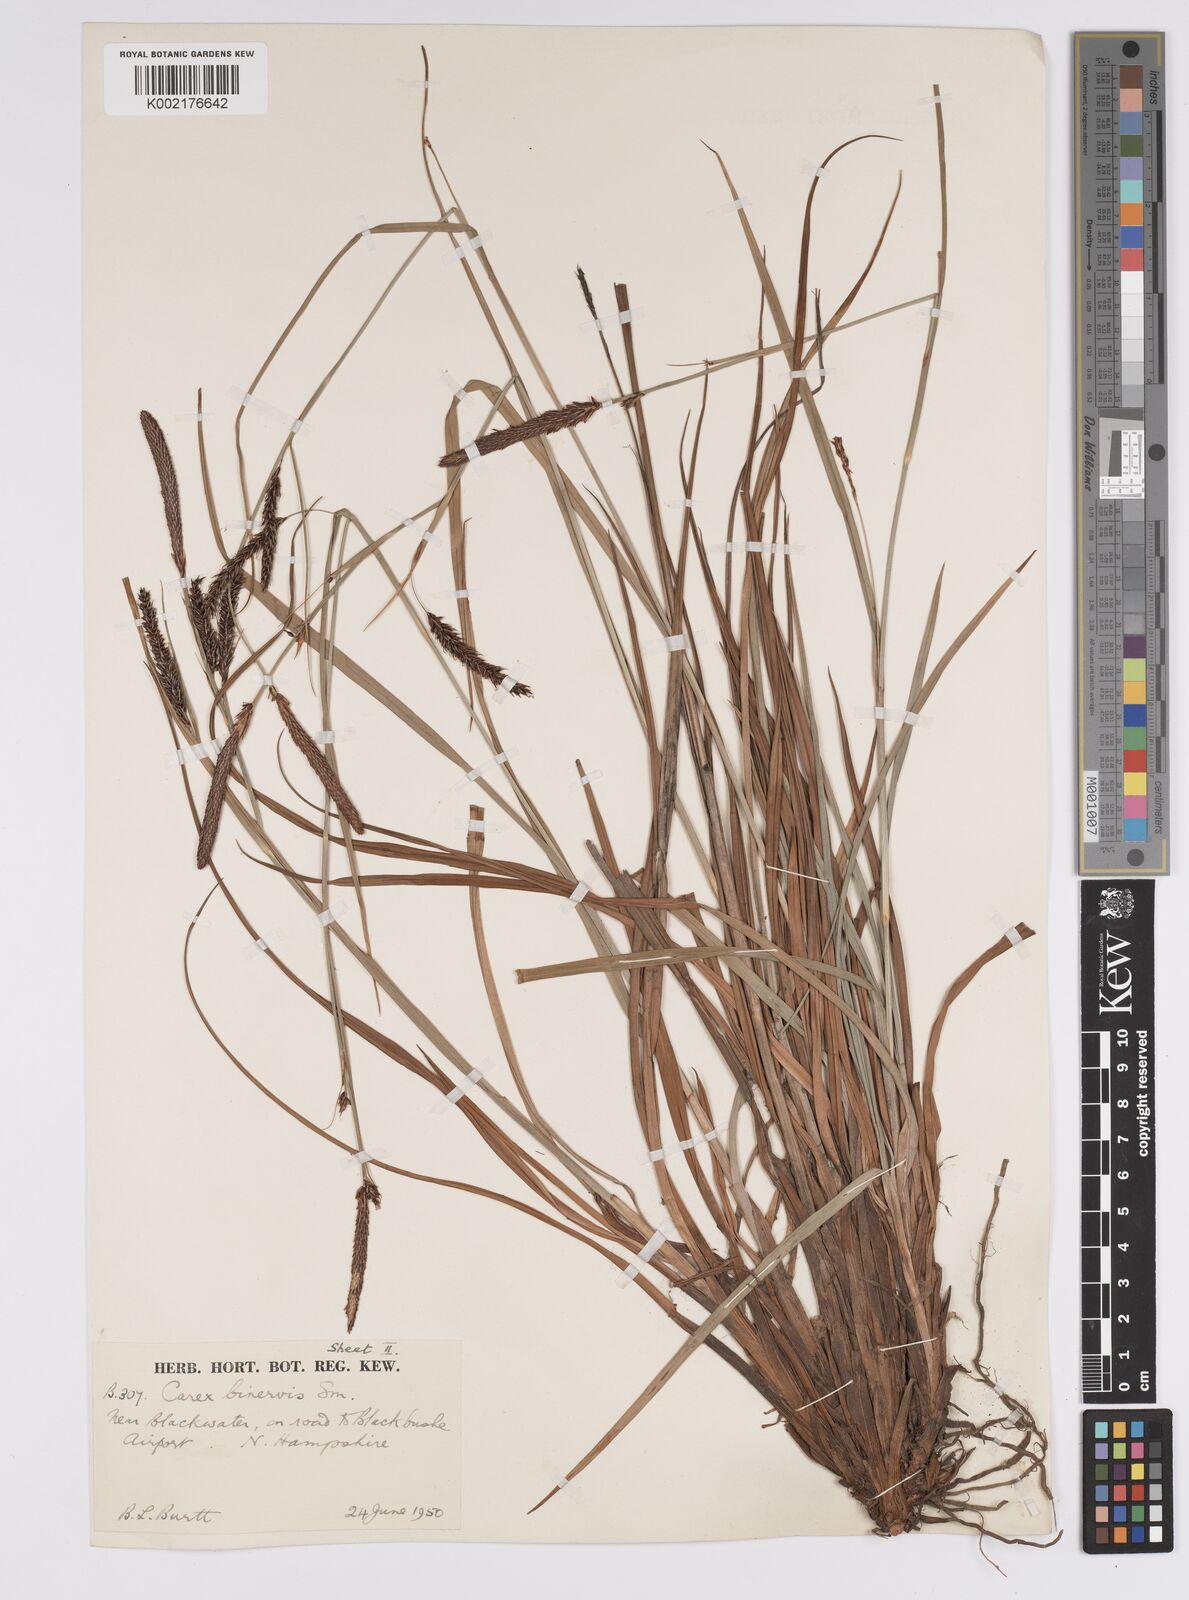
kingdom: Plantae
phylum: Tracheophyta
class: Liliopsida
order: Poales
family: Cyperaceae
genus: Carex
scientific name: Carex binervis
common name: Green-ribbed sedge
